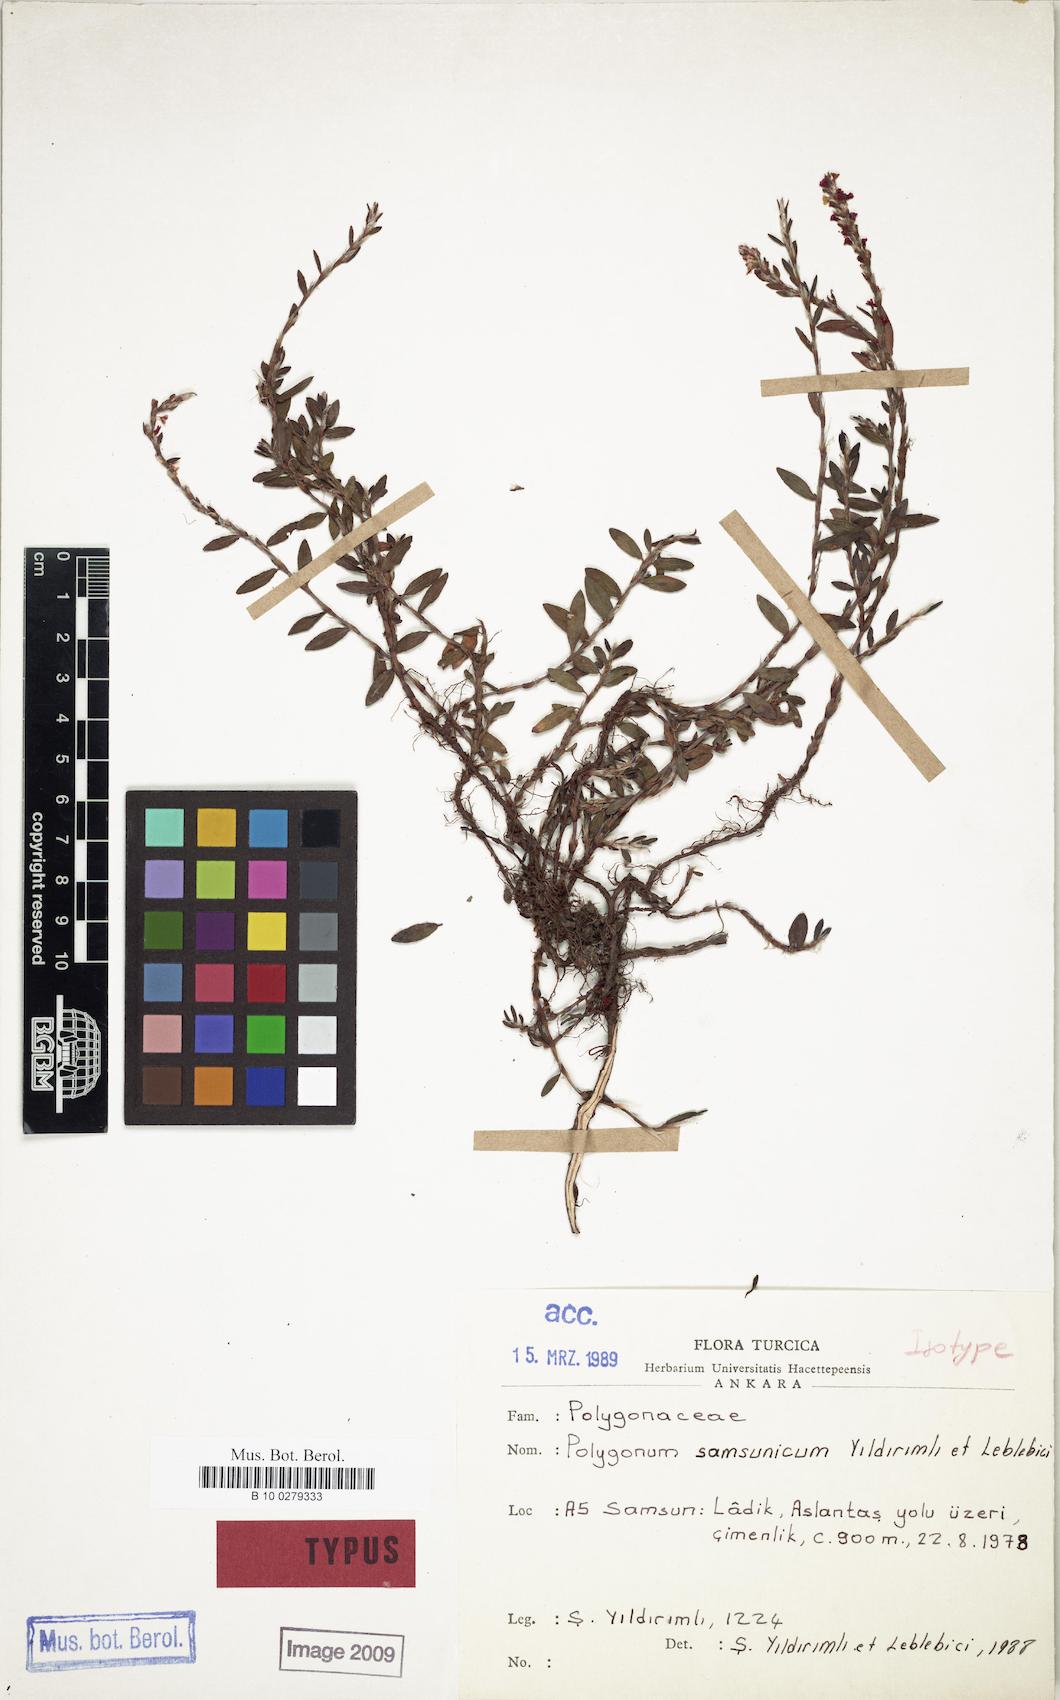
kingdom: Plantae
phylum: Tracheophyta
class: Magnoliopsida
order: Caryophyllales
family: Polygonaceae
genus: Polygonum
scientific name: Polygonum samsunicum
